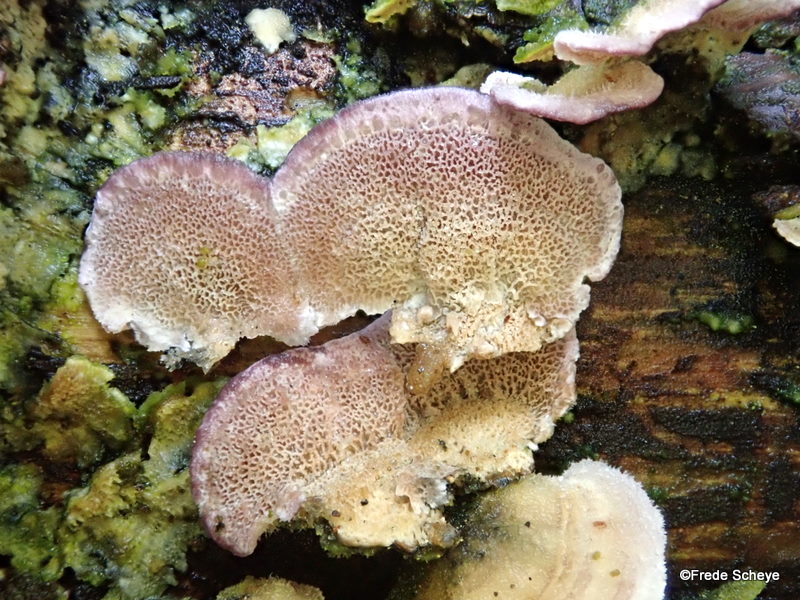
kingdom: Fungi
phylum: Basidiomycota
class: Agaricomycetes
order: Hymenochaetales
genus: Trichaptum
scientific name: Trichaptum abietinum
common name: almindelig violporesvamp
